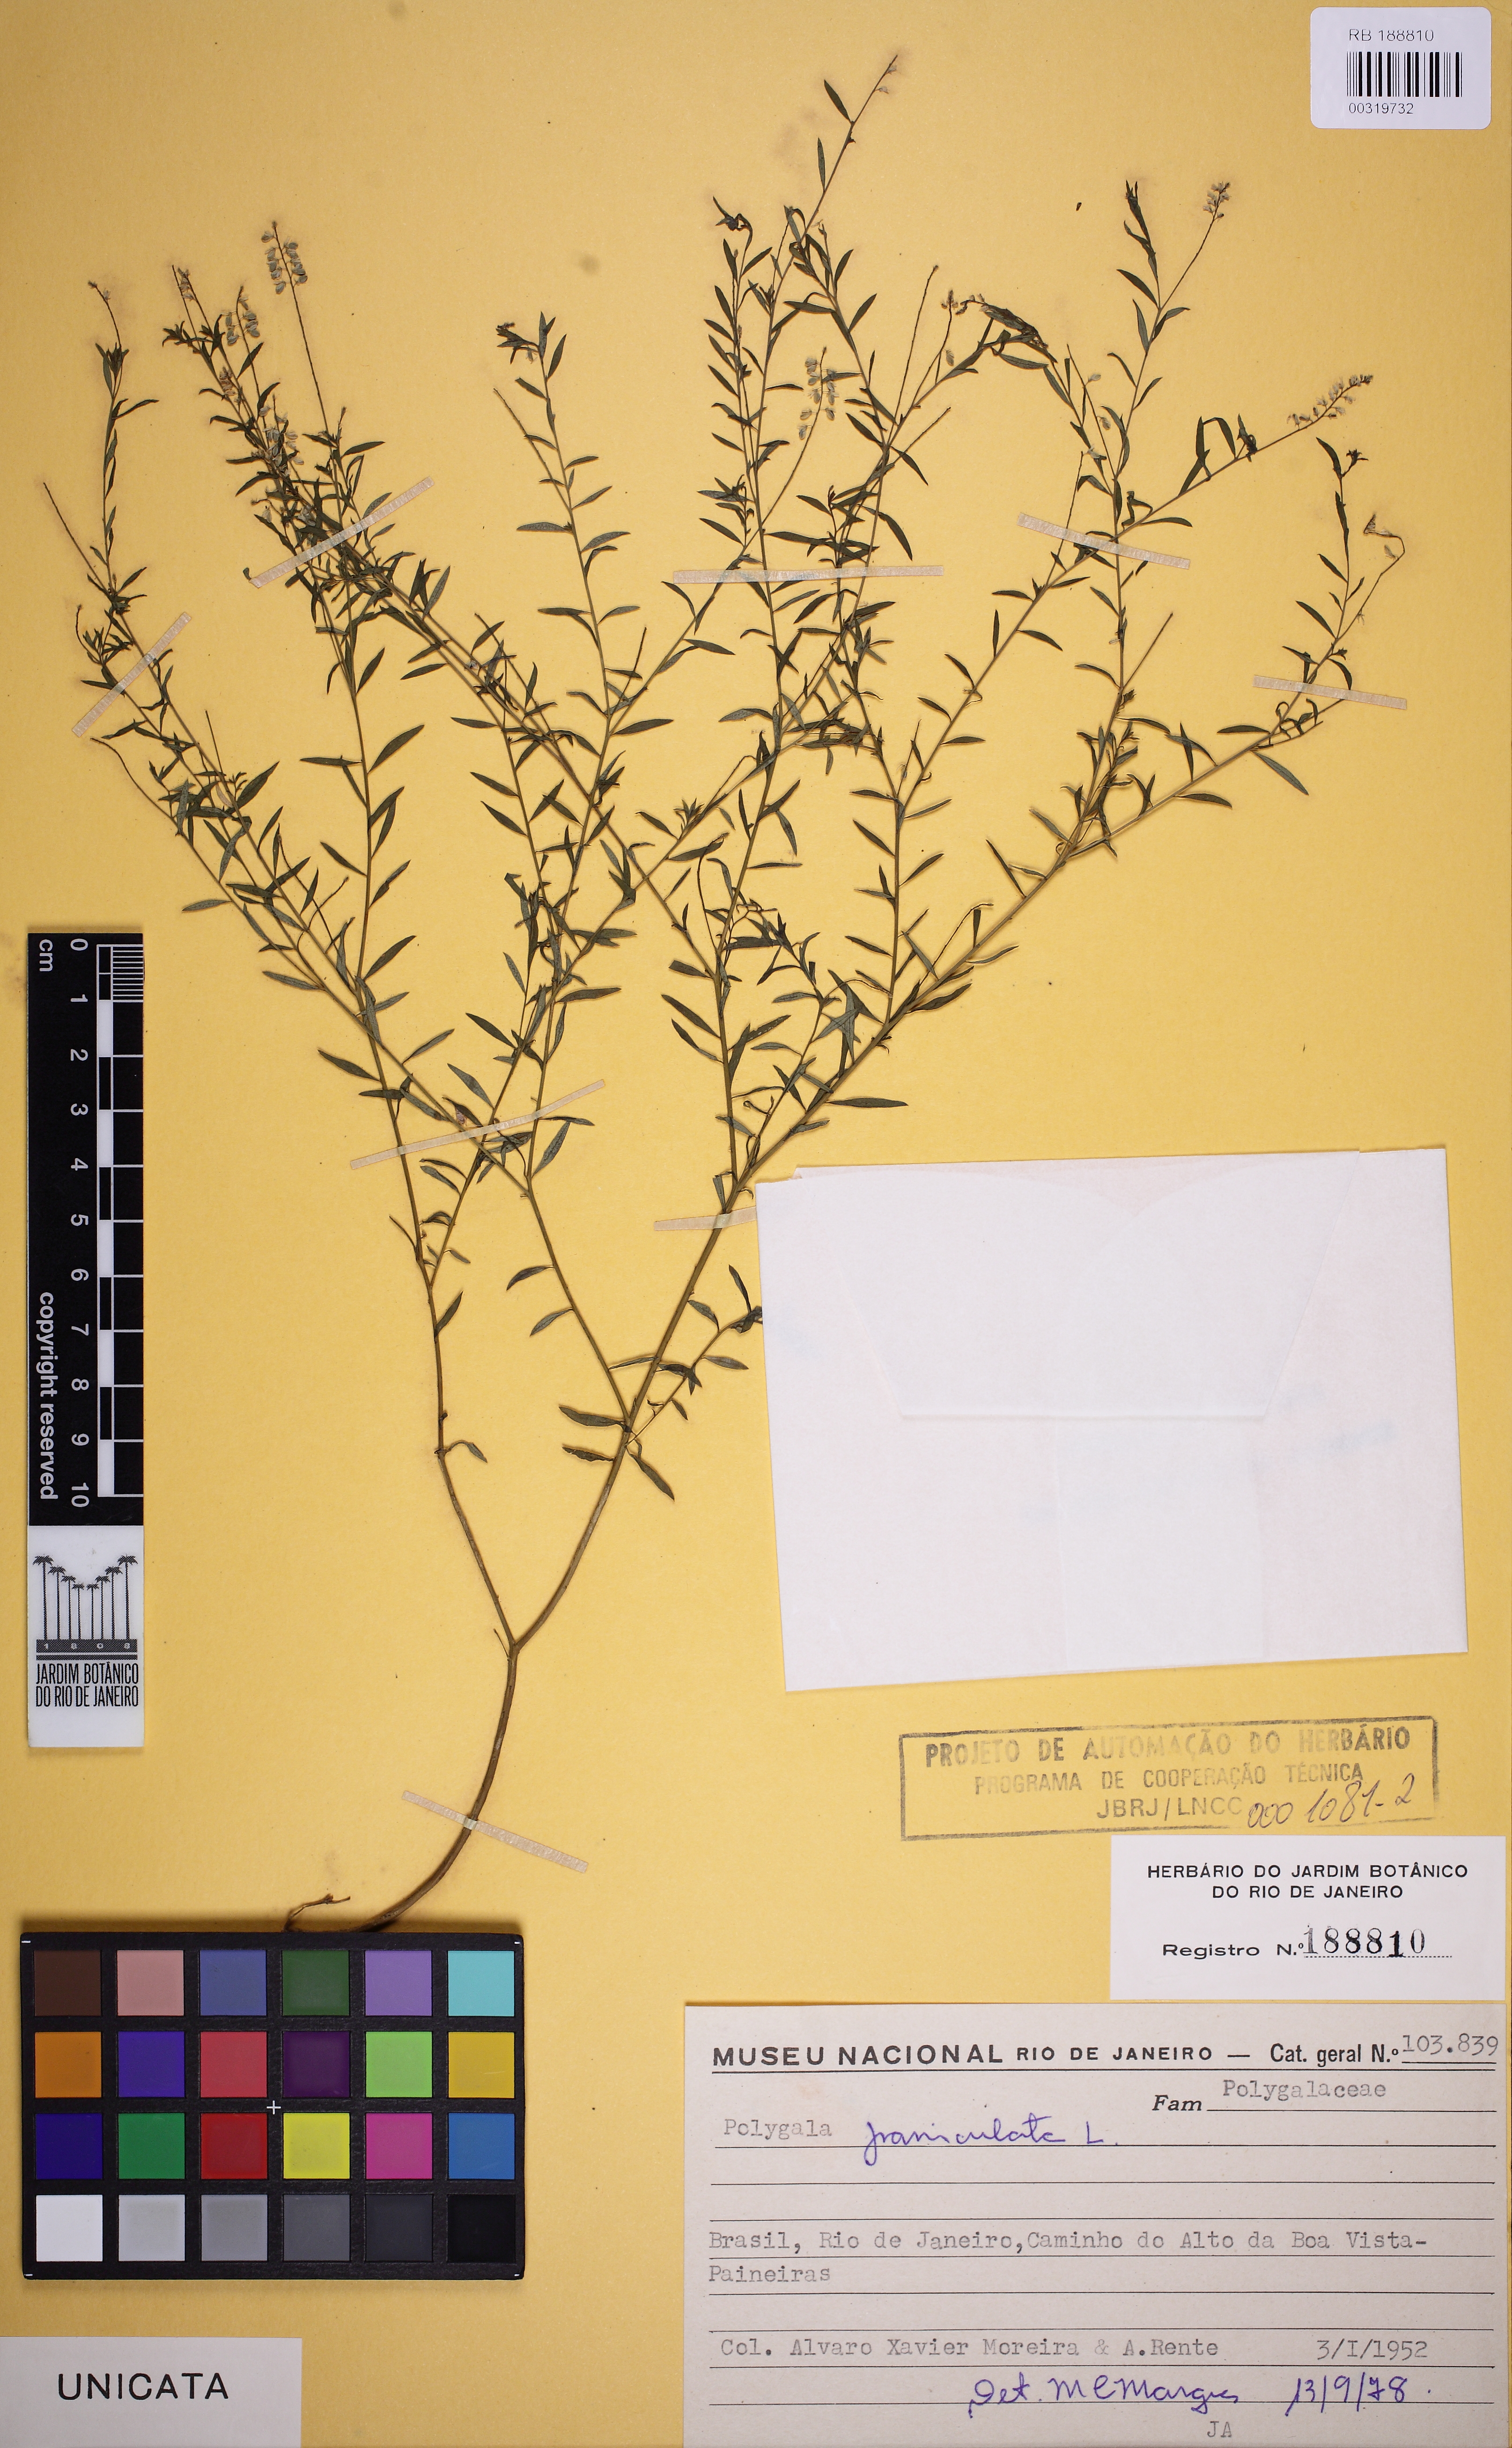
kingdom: Plantae
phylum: Tracheophyta
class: Magnoliopsida
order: Fabales
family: Polygalaceae
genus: Polygala
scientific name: Polygala paniculata
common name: Orosne
